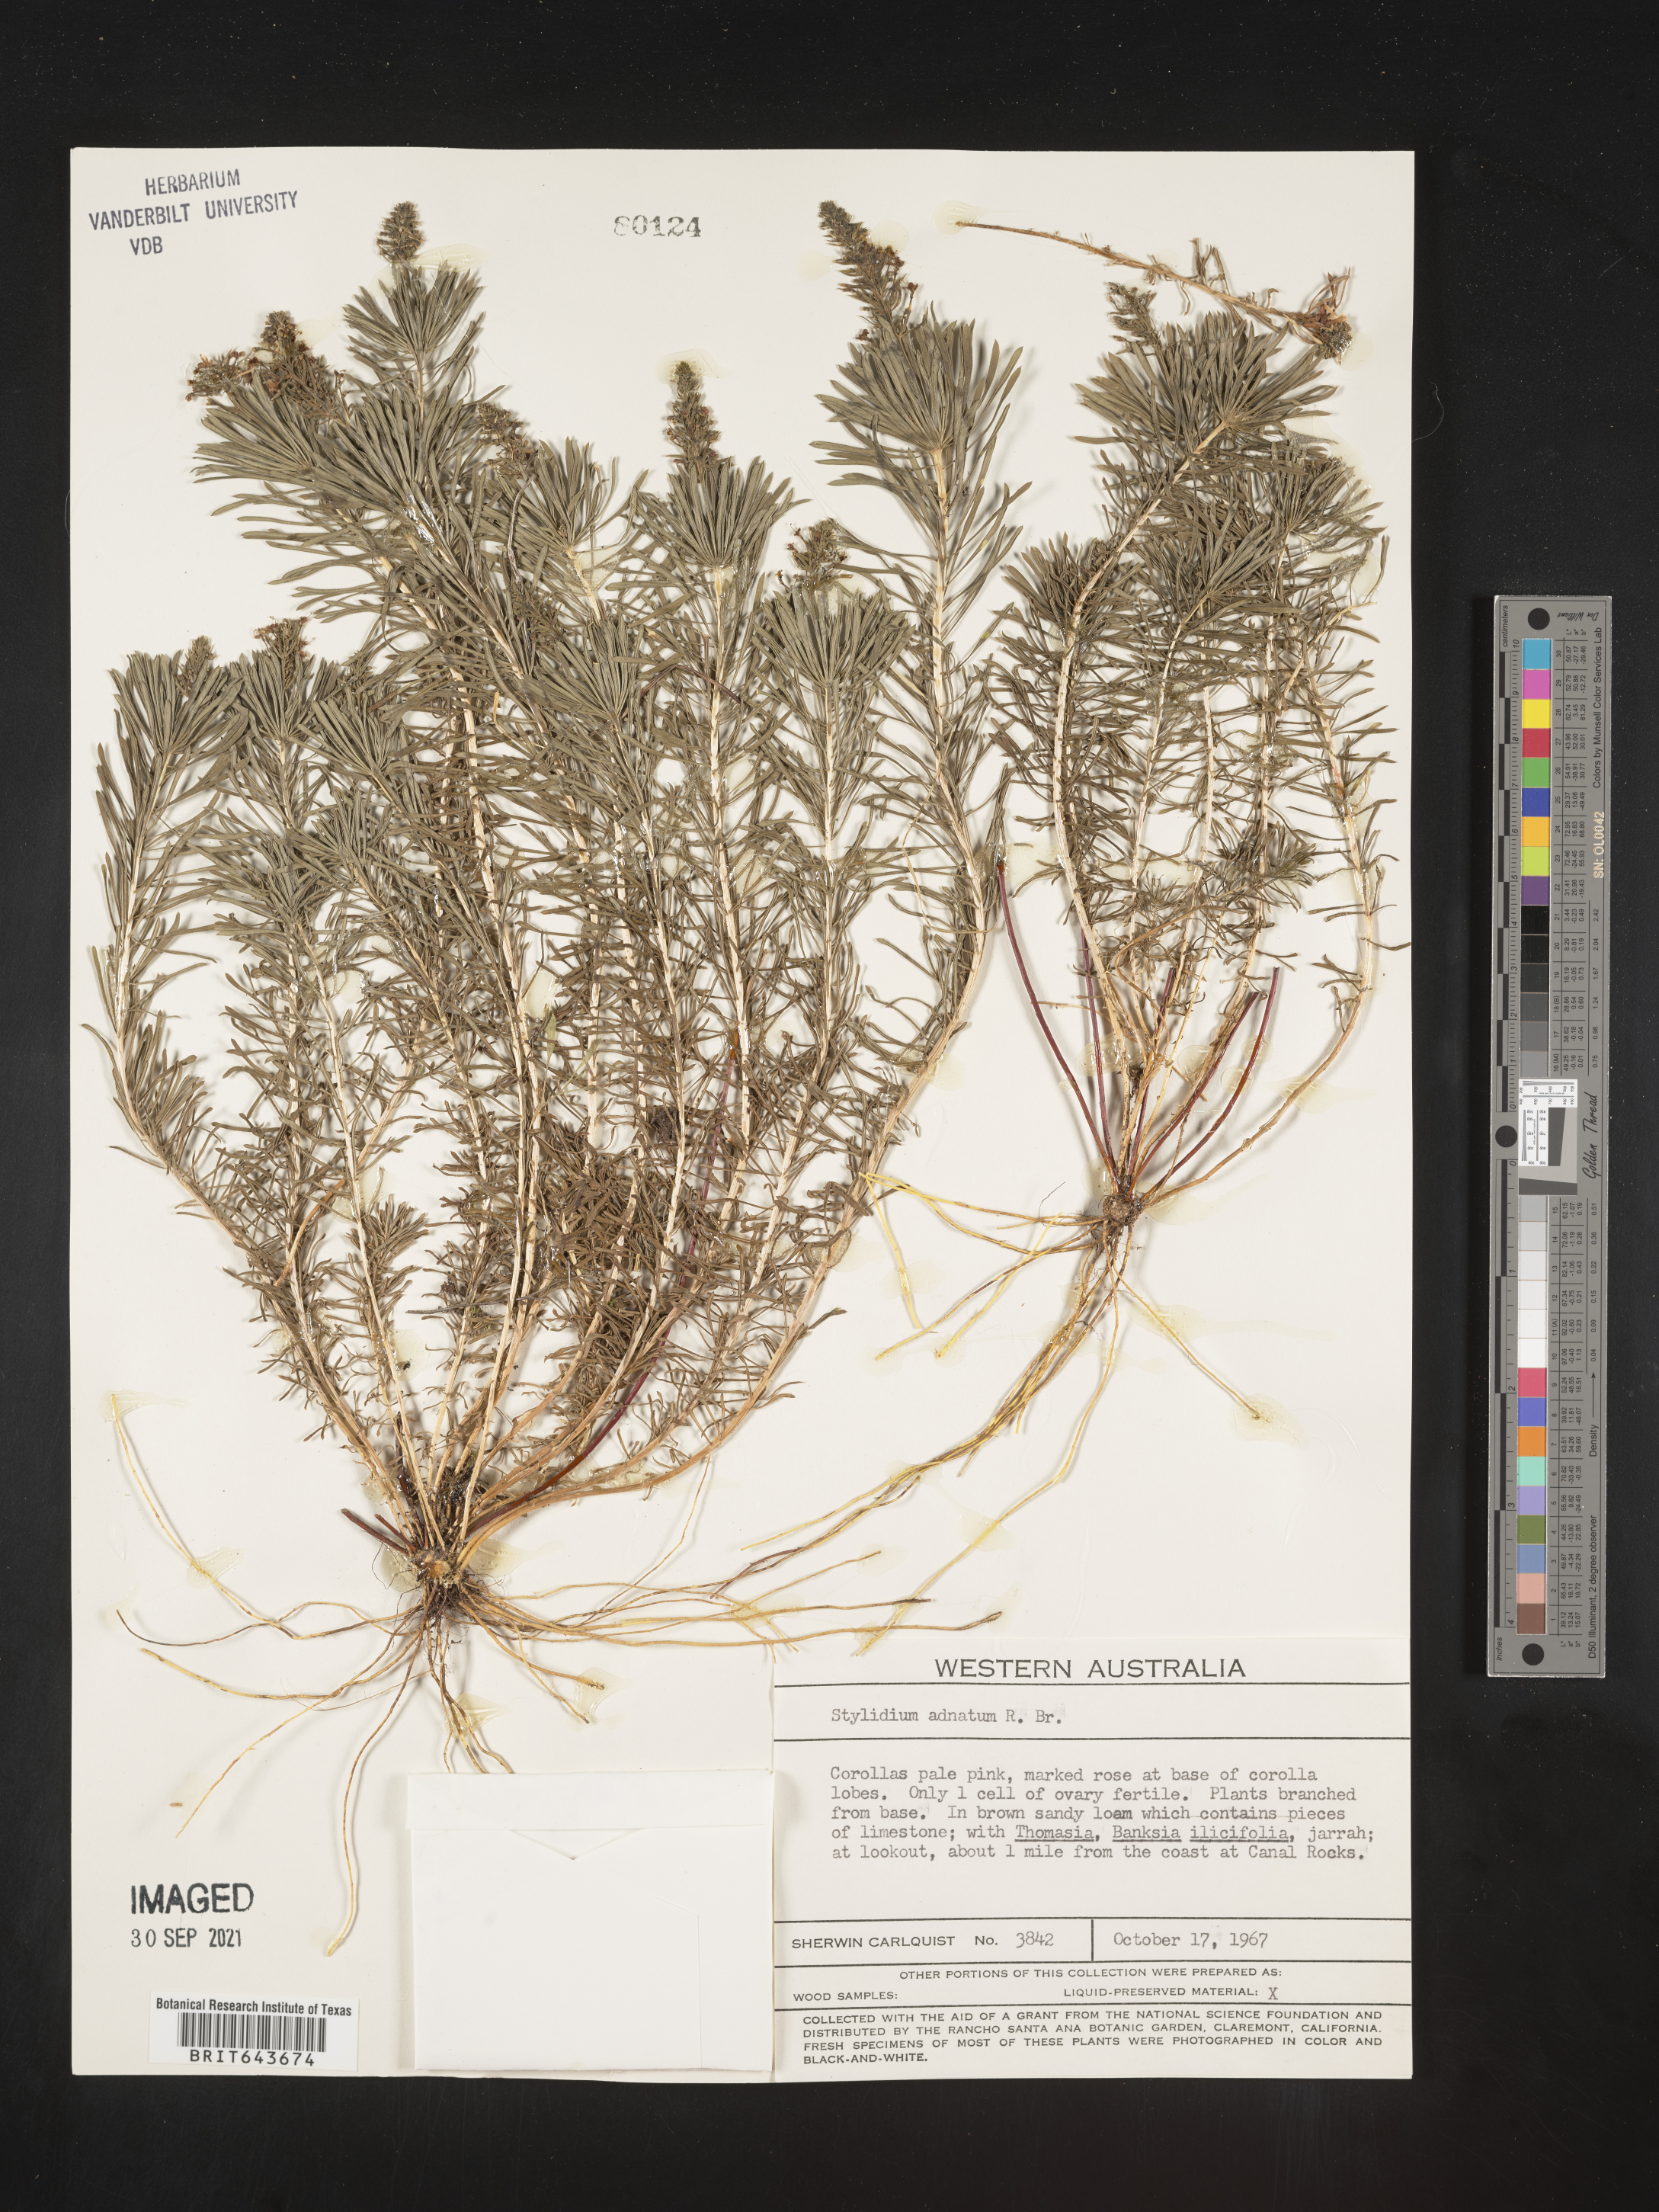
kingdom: Plantae
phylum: Tracheophyta
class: Magnoliopsida
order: Asterales
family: Stylidiaceae
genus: Stylidium
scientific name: Stylidium
